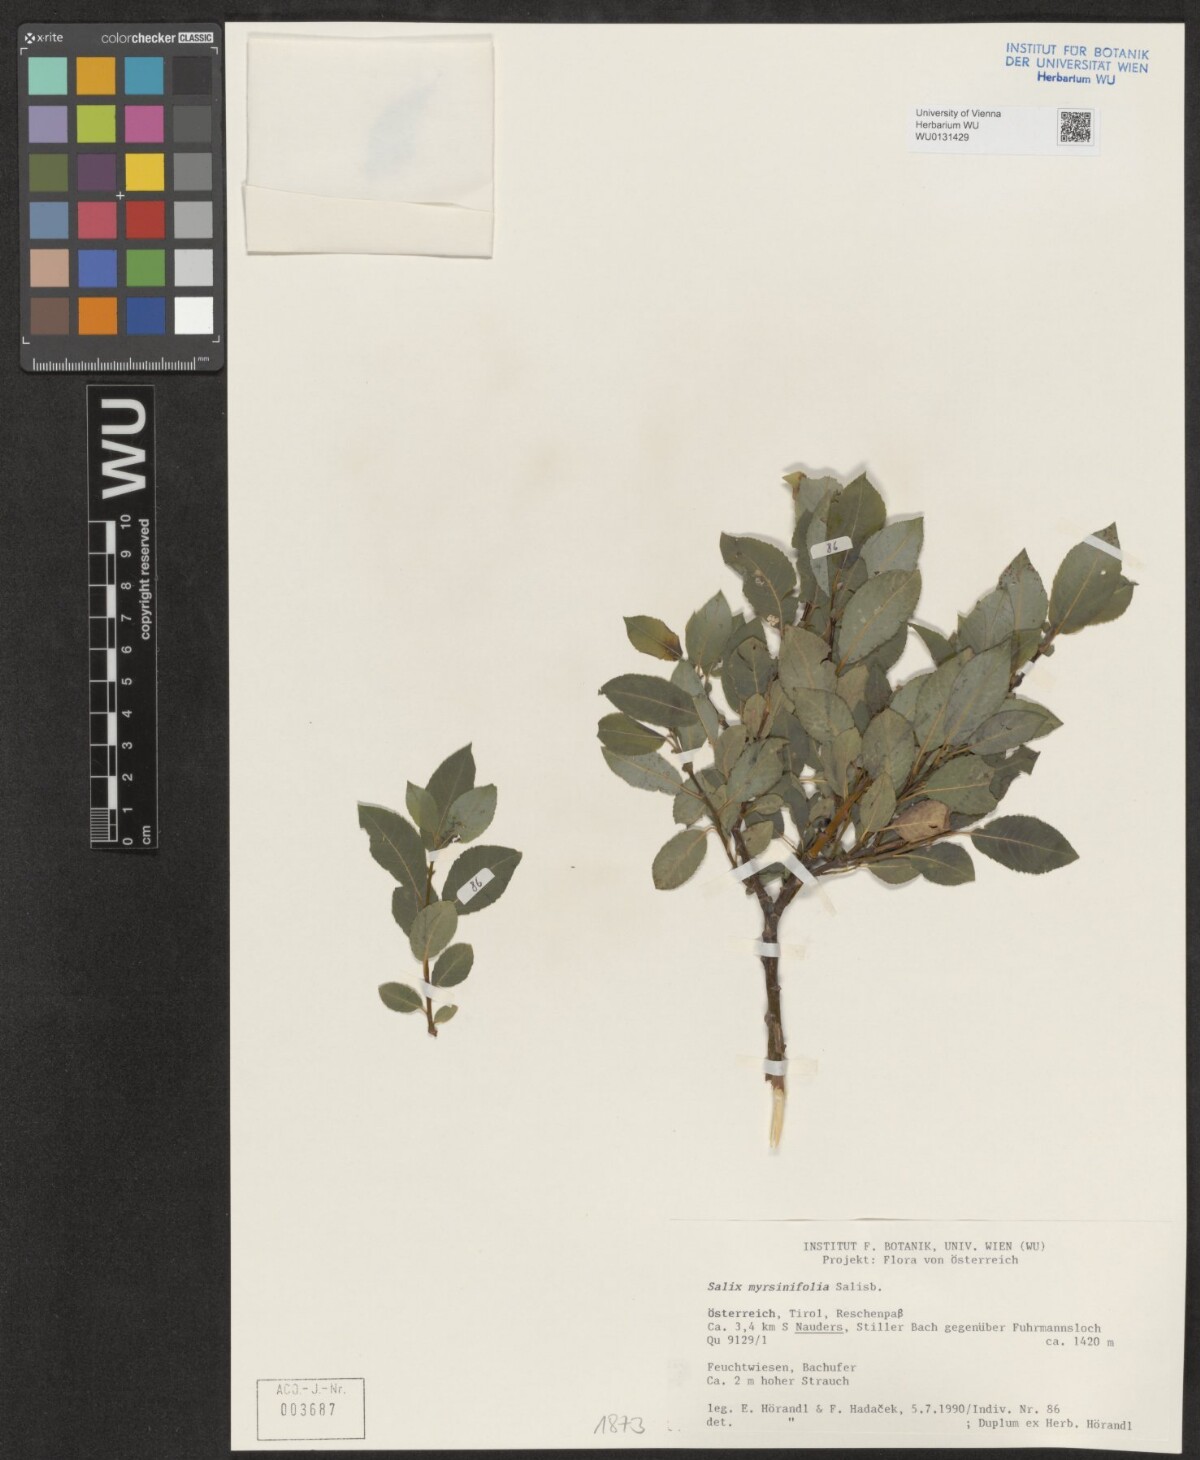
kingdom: Plantae
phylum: Tracheophyta
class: Magnoliopsida
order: Malpighiales
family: Salicaceae
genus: Salix
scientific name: Salix myrsinifolia
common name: Dark-leaved willow
